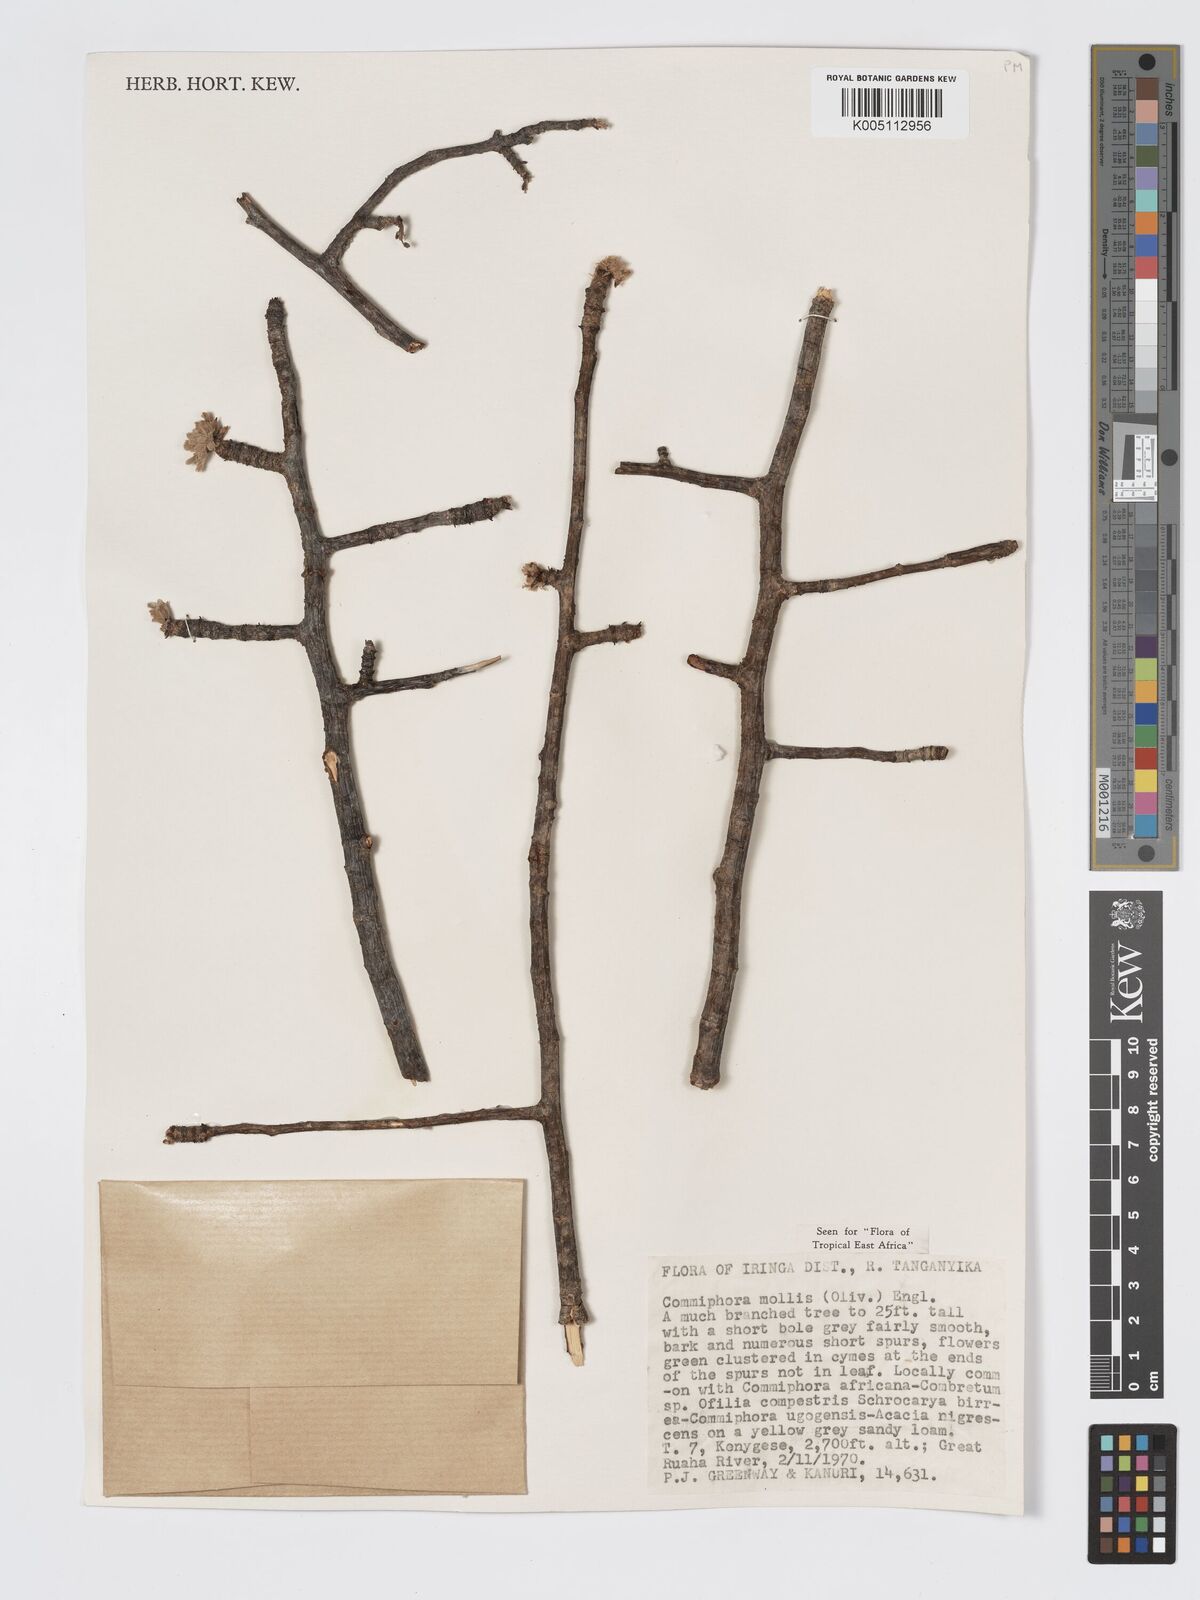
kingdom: Plantae
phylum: Tracheophyta
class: Magnoliopsida
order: Sapindales
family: Burseraceae
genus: Commiphora
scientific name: Commiphora
